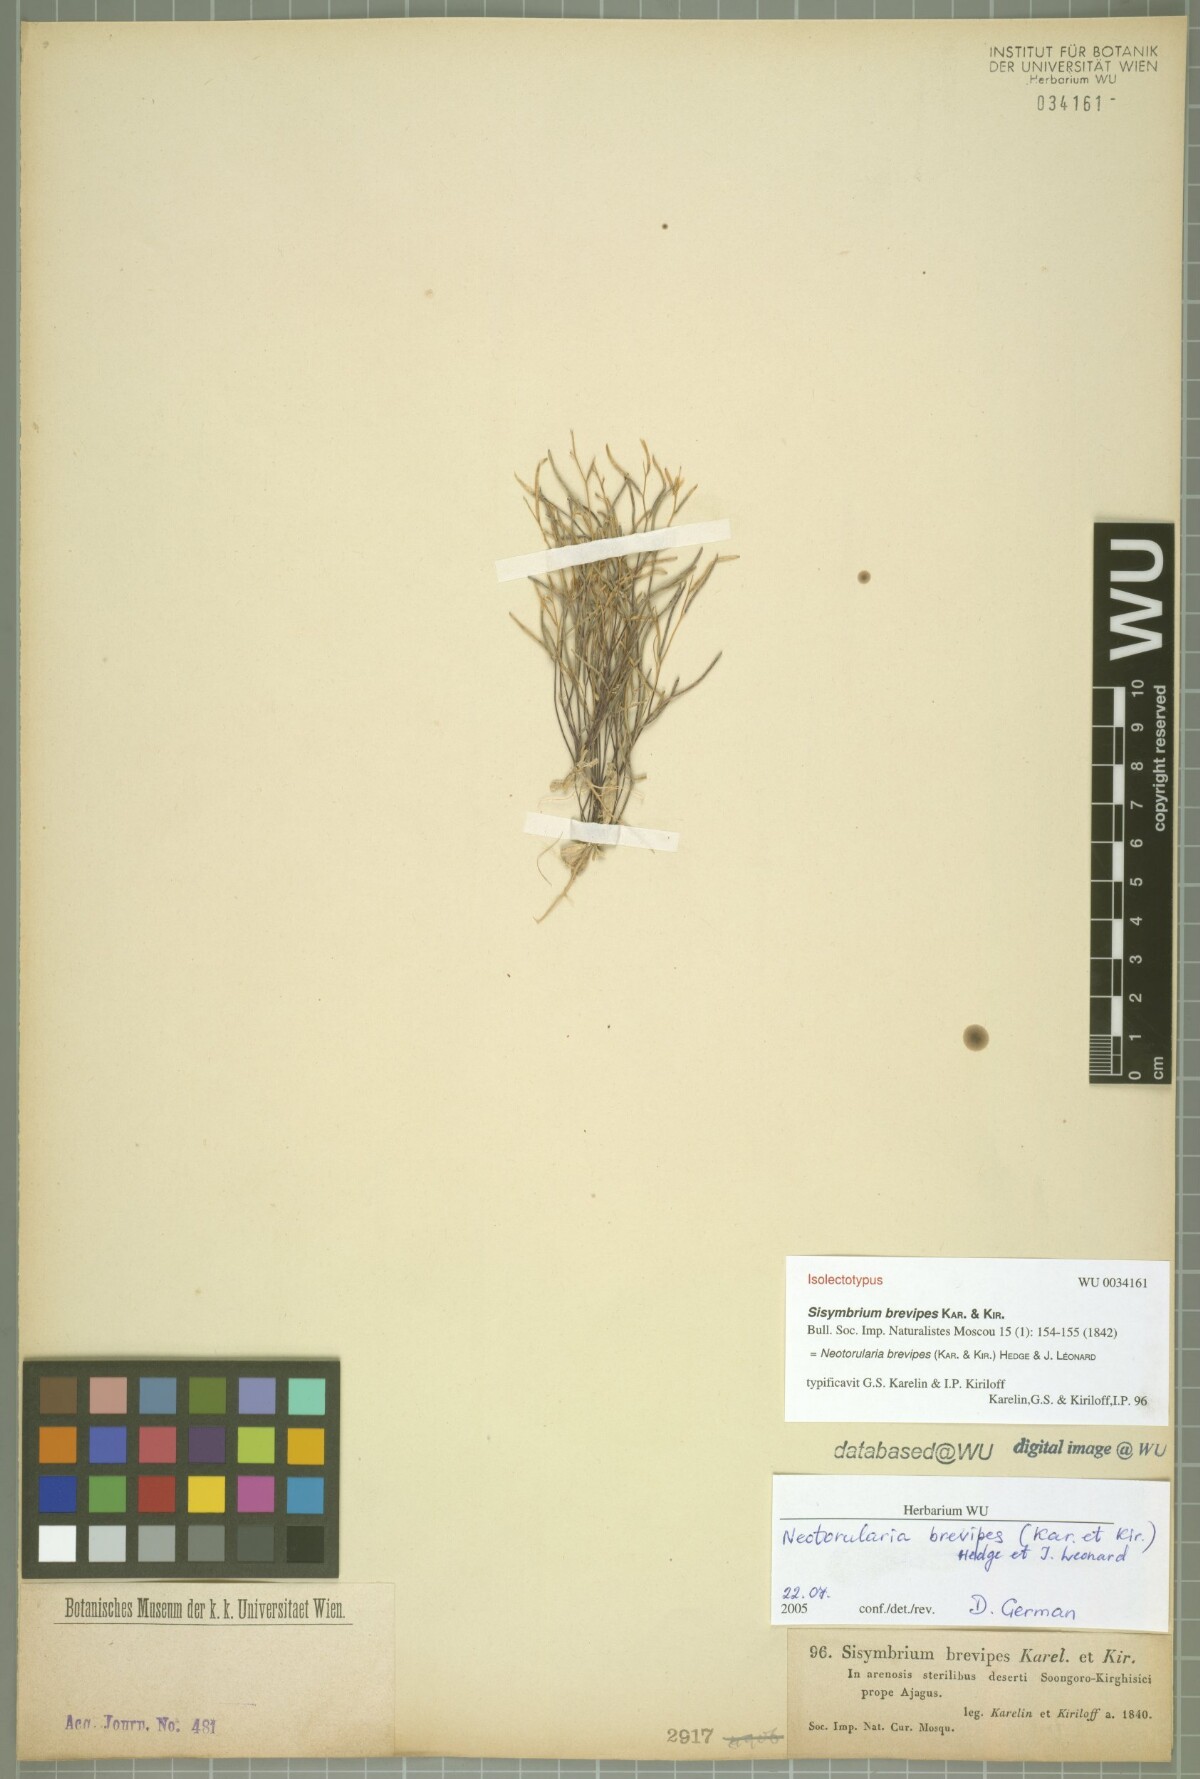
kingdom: Plantae
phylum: Tracheophyta
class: Magnoliopsida
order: Brassicales
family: Brassicaceae
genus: Neotorularia
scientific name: Neotorularia brevipes
